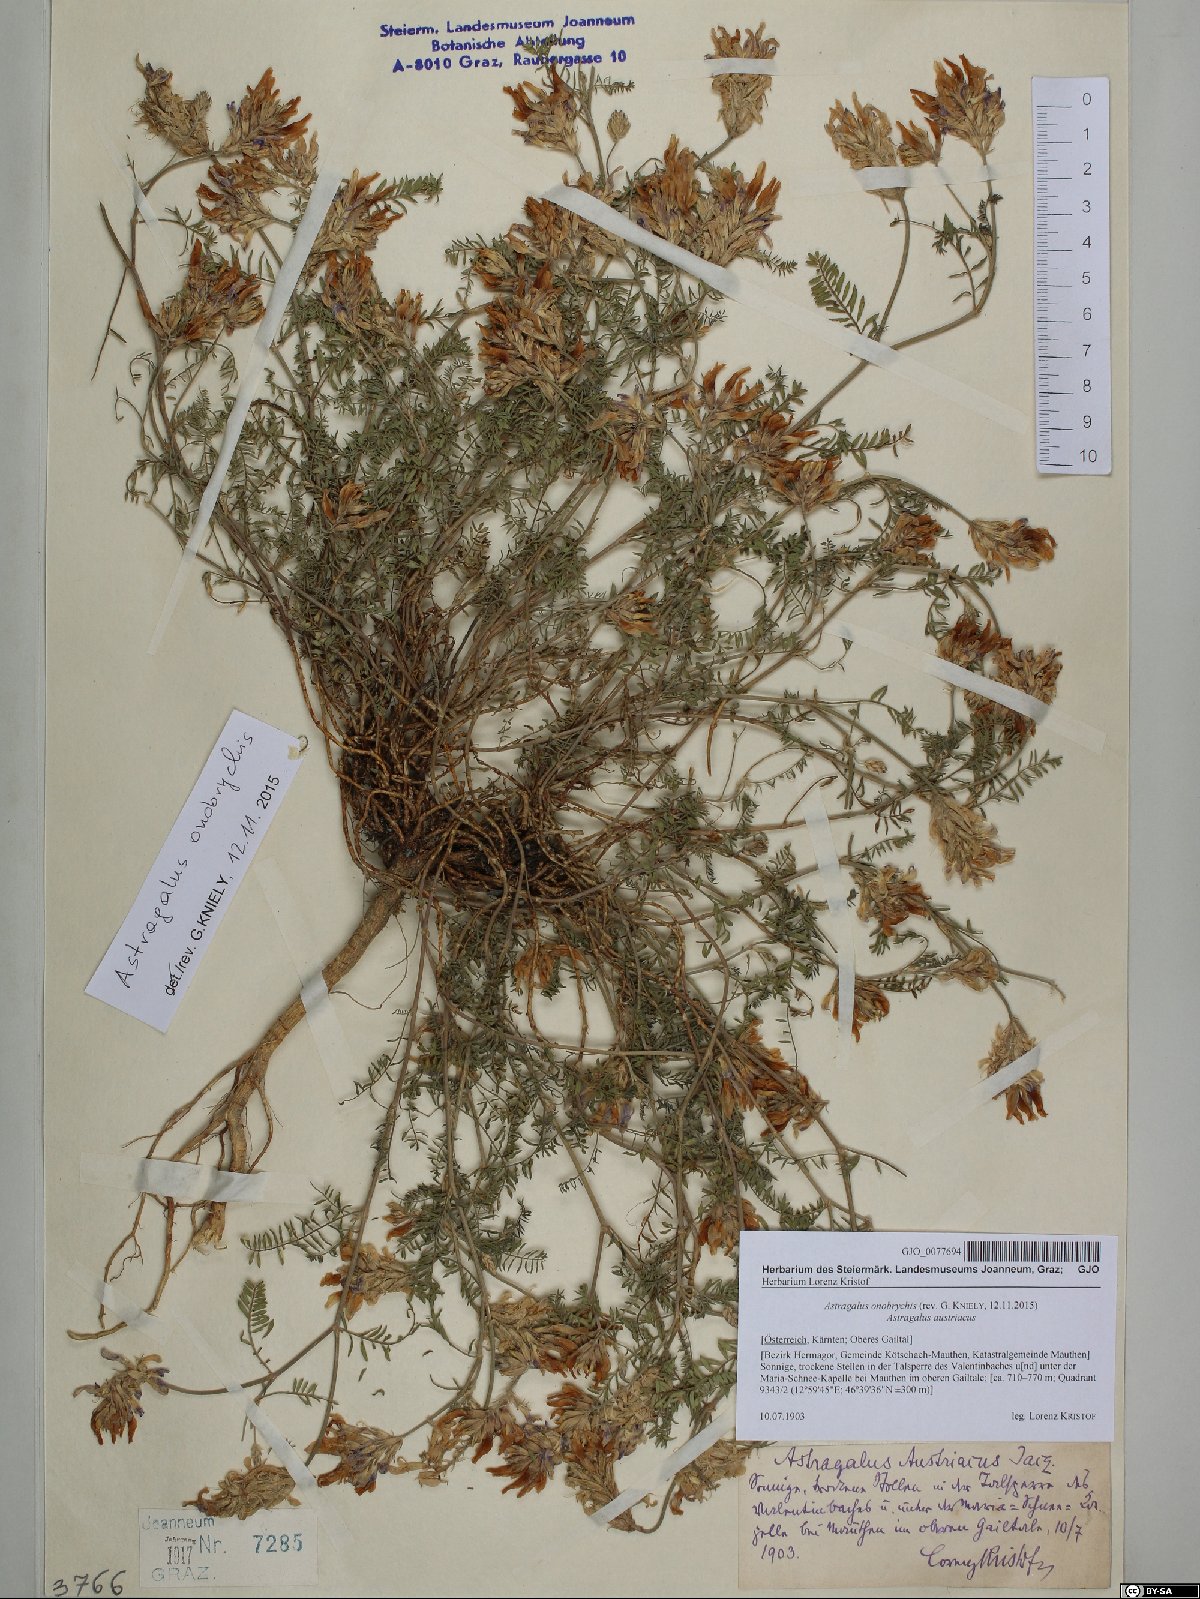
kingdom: Plantae
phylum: Tracheophyta
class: Magnoliopsida
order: Fabales
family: Fabaceae
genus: Astragalus
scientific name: Astragalus onobrychis
